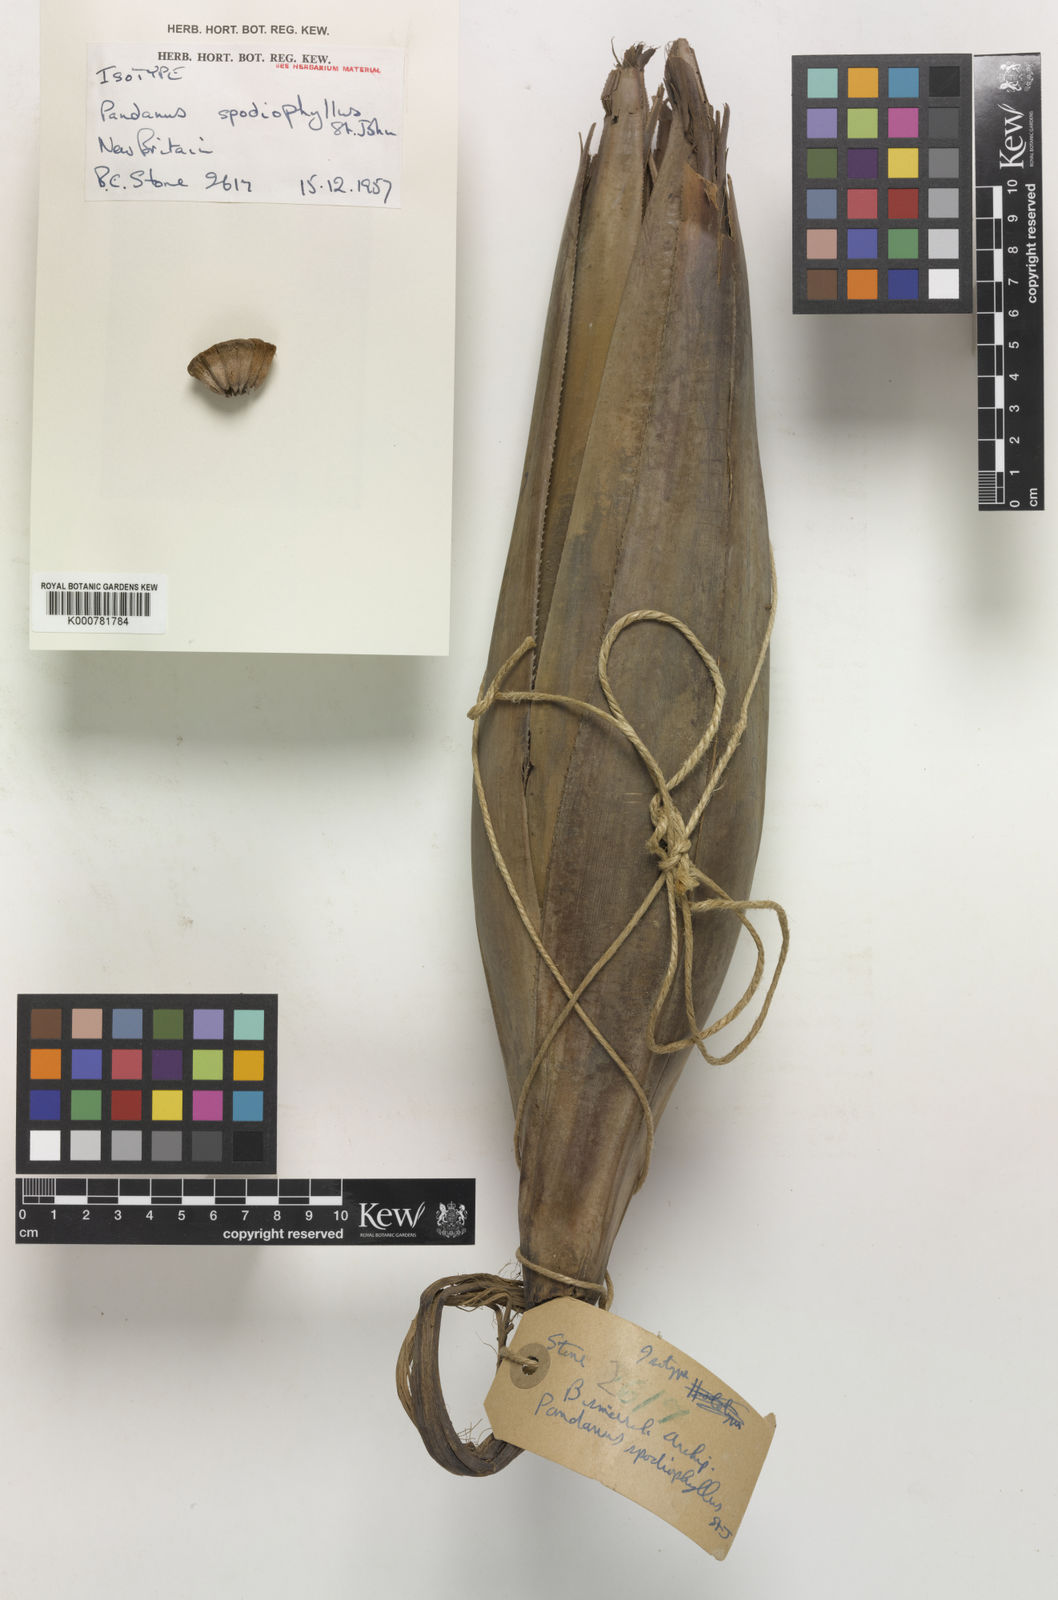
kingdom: Plantae
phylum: Tracheophyta
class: Liliopsida
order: Pandanales
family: Pandanaceae
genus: Pandanus
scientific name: Pandanus
